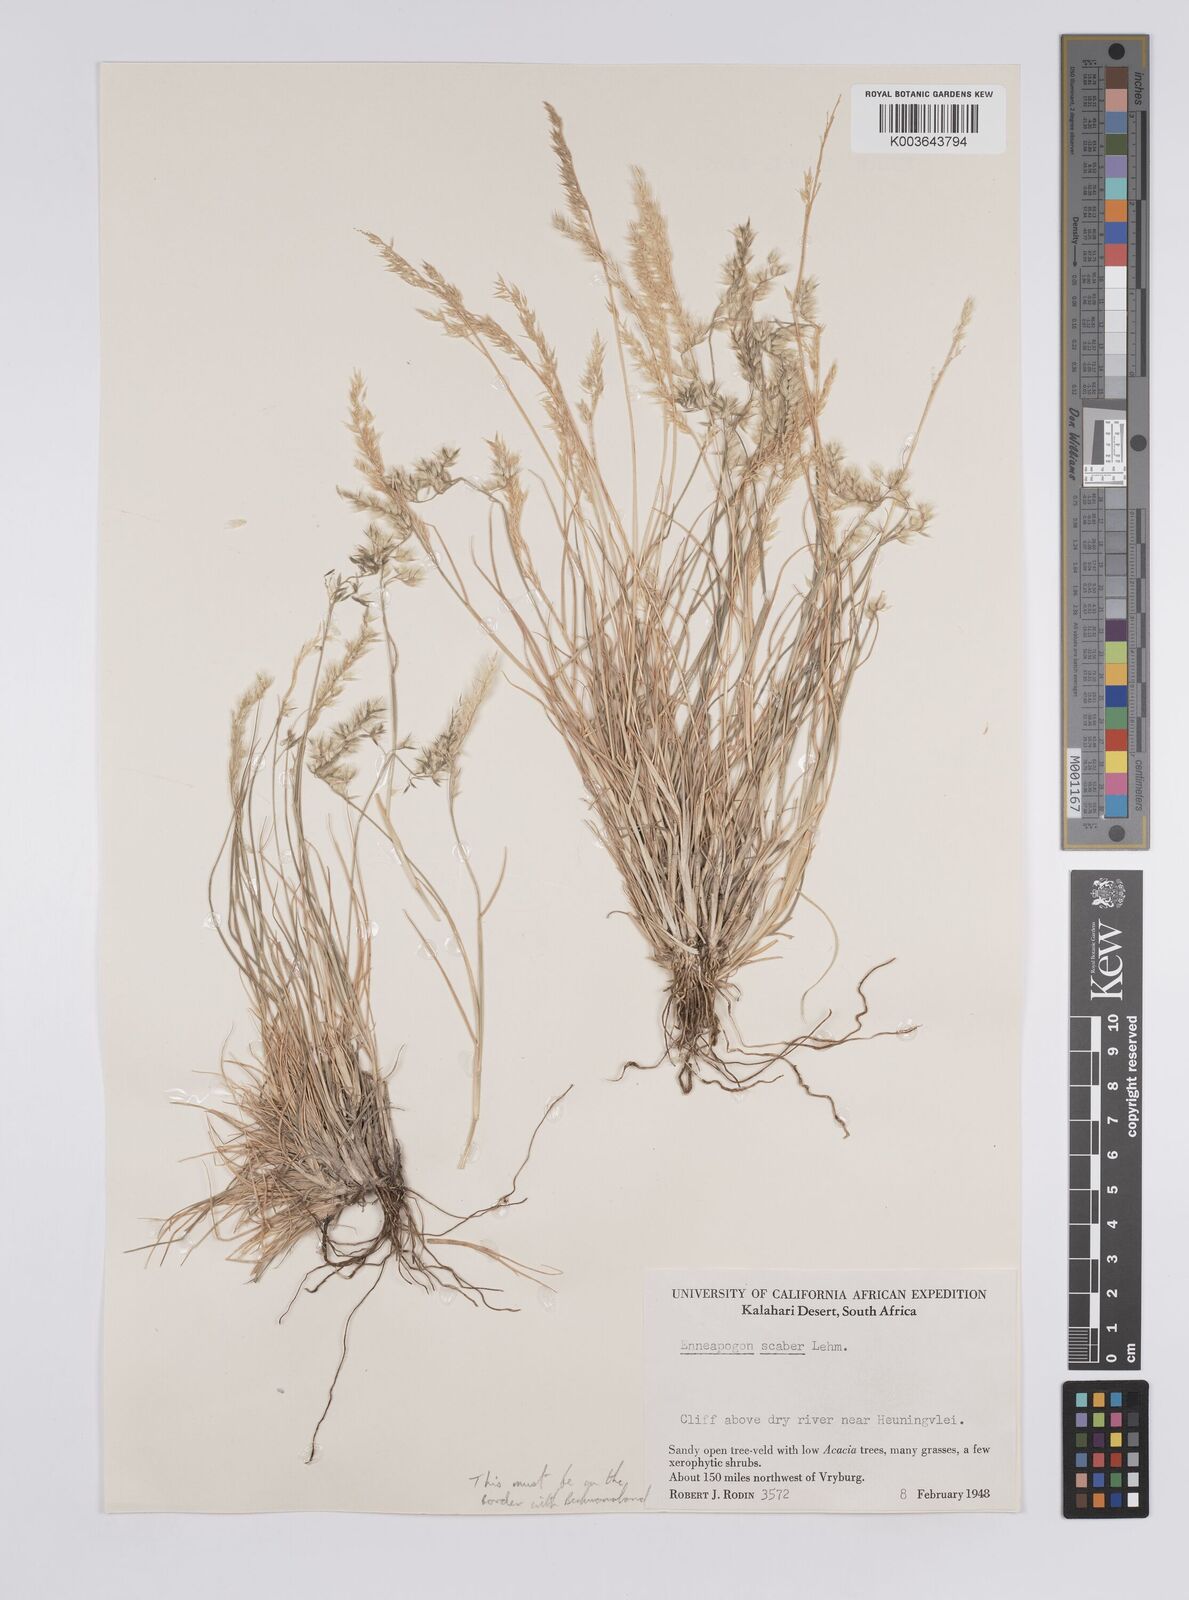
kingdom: Plantae
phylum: Tracheophyta
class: Liliopsida
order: Poales
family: Poaceae
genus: Enneapogon
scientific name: Enneapogon scaber
